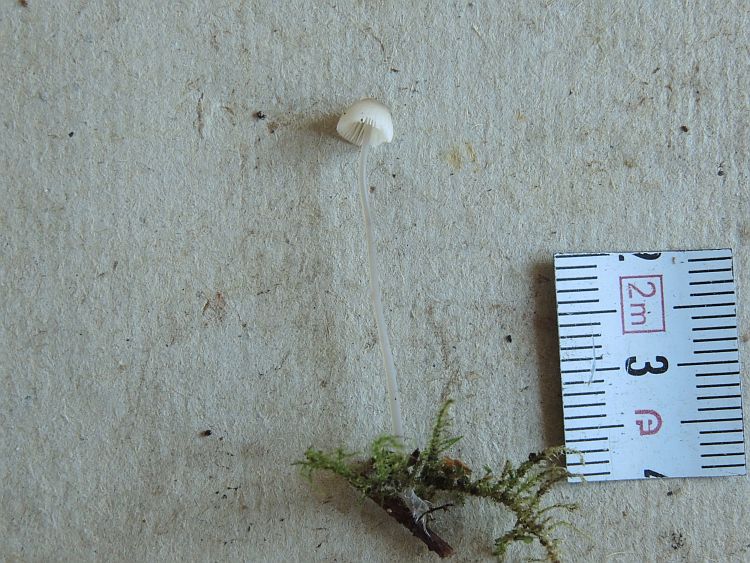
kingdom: Fungi
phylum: Basidiomycota
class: Agaricomycetes
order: Agaricales
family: Mycenaceae
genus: Mycena
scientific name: Mycena filopes
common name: jod-huesvamp
